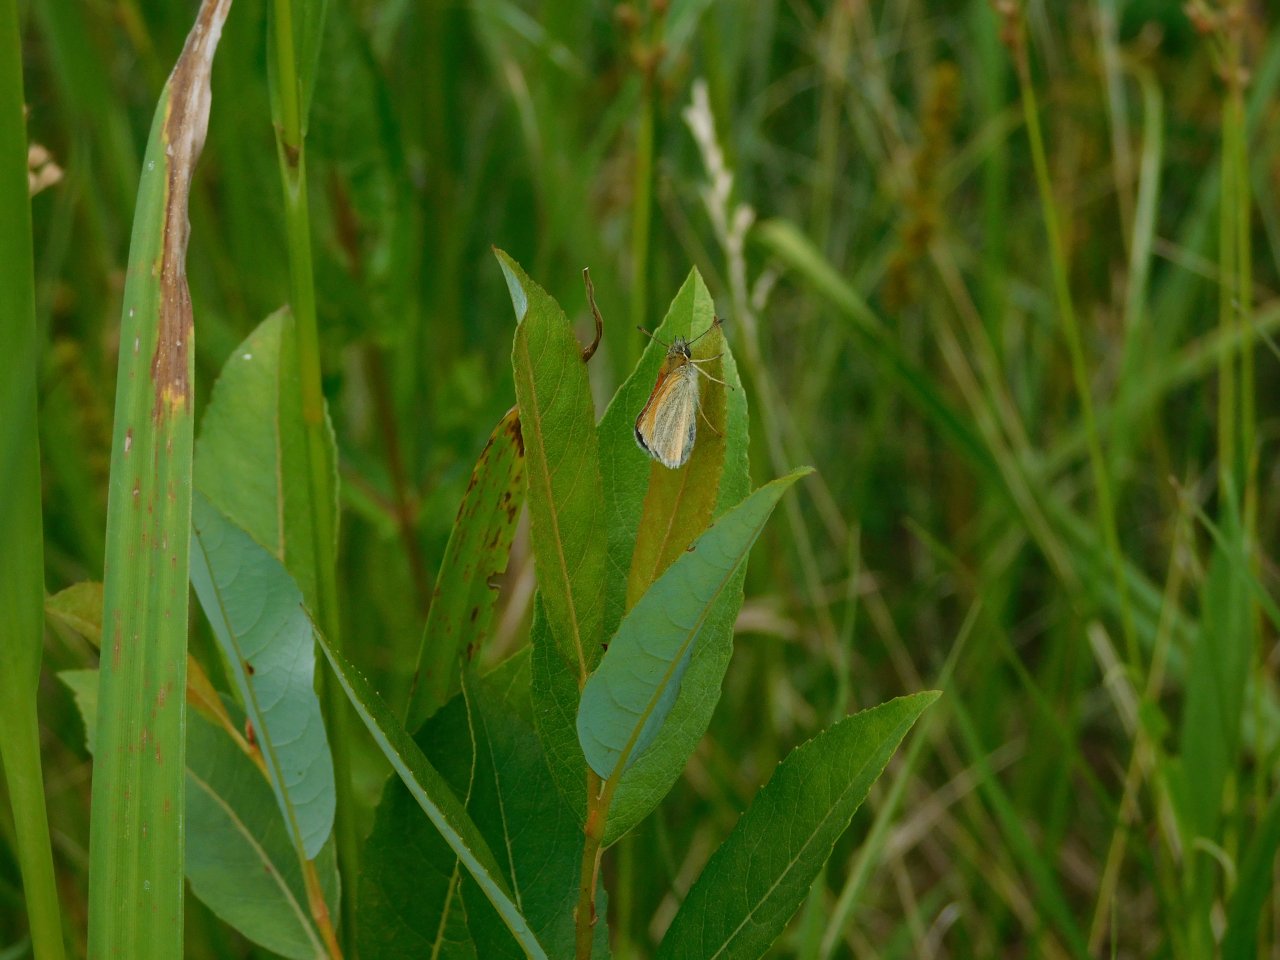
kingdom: Animalia
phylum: Arthropoda
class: Insecta
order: Lepidoptera
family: Hesperiidae
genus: Thymelicus
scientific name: Thymelicus lineola
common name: European Skipper
